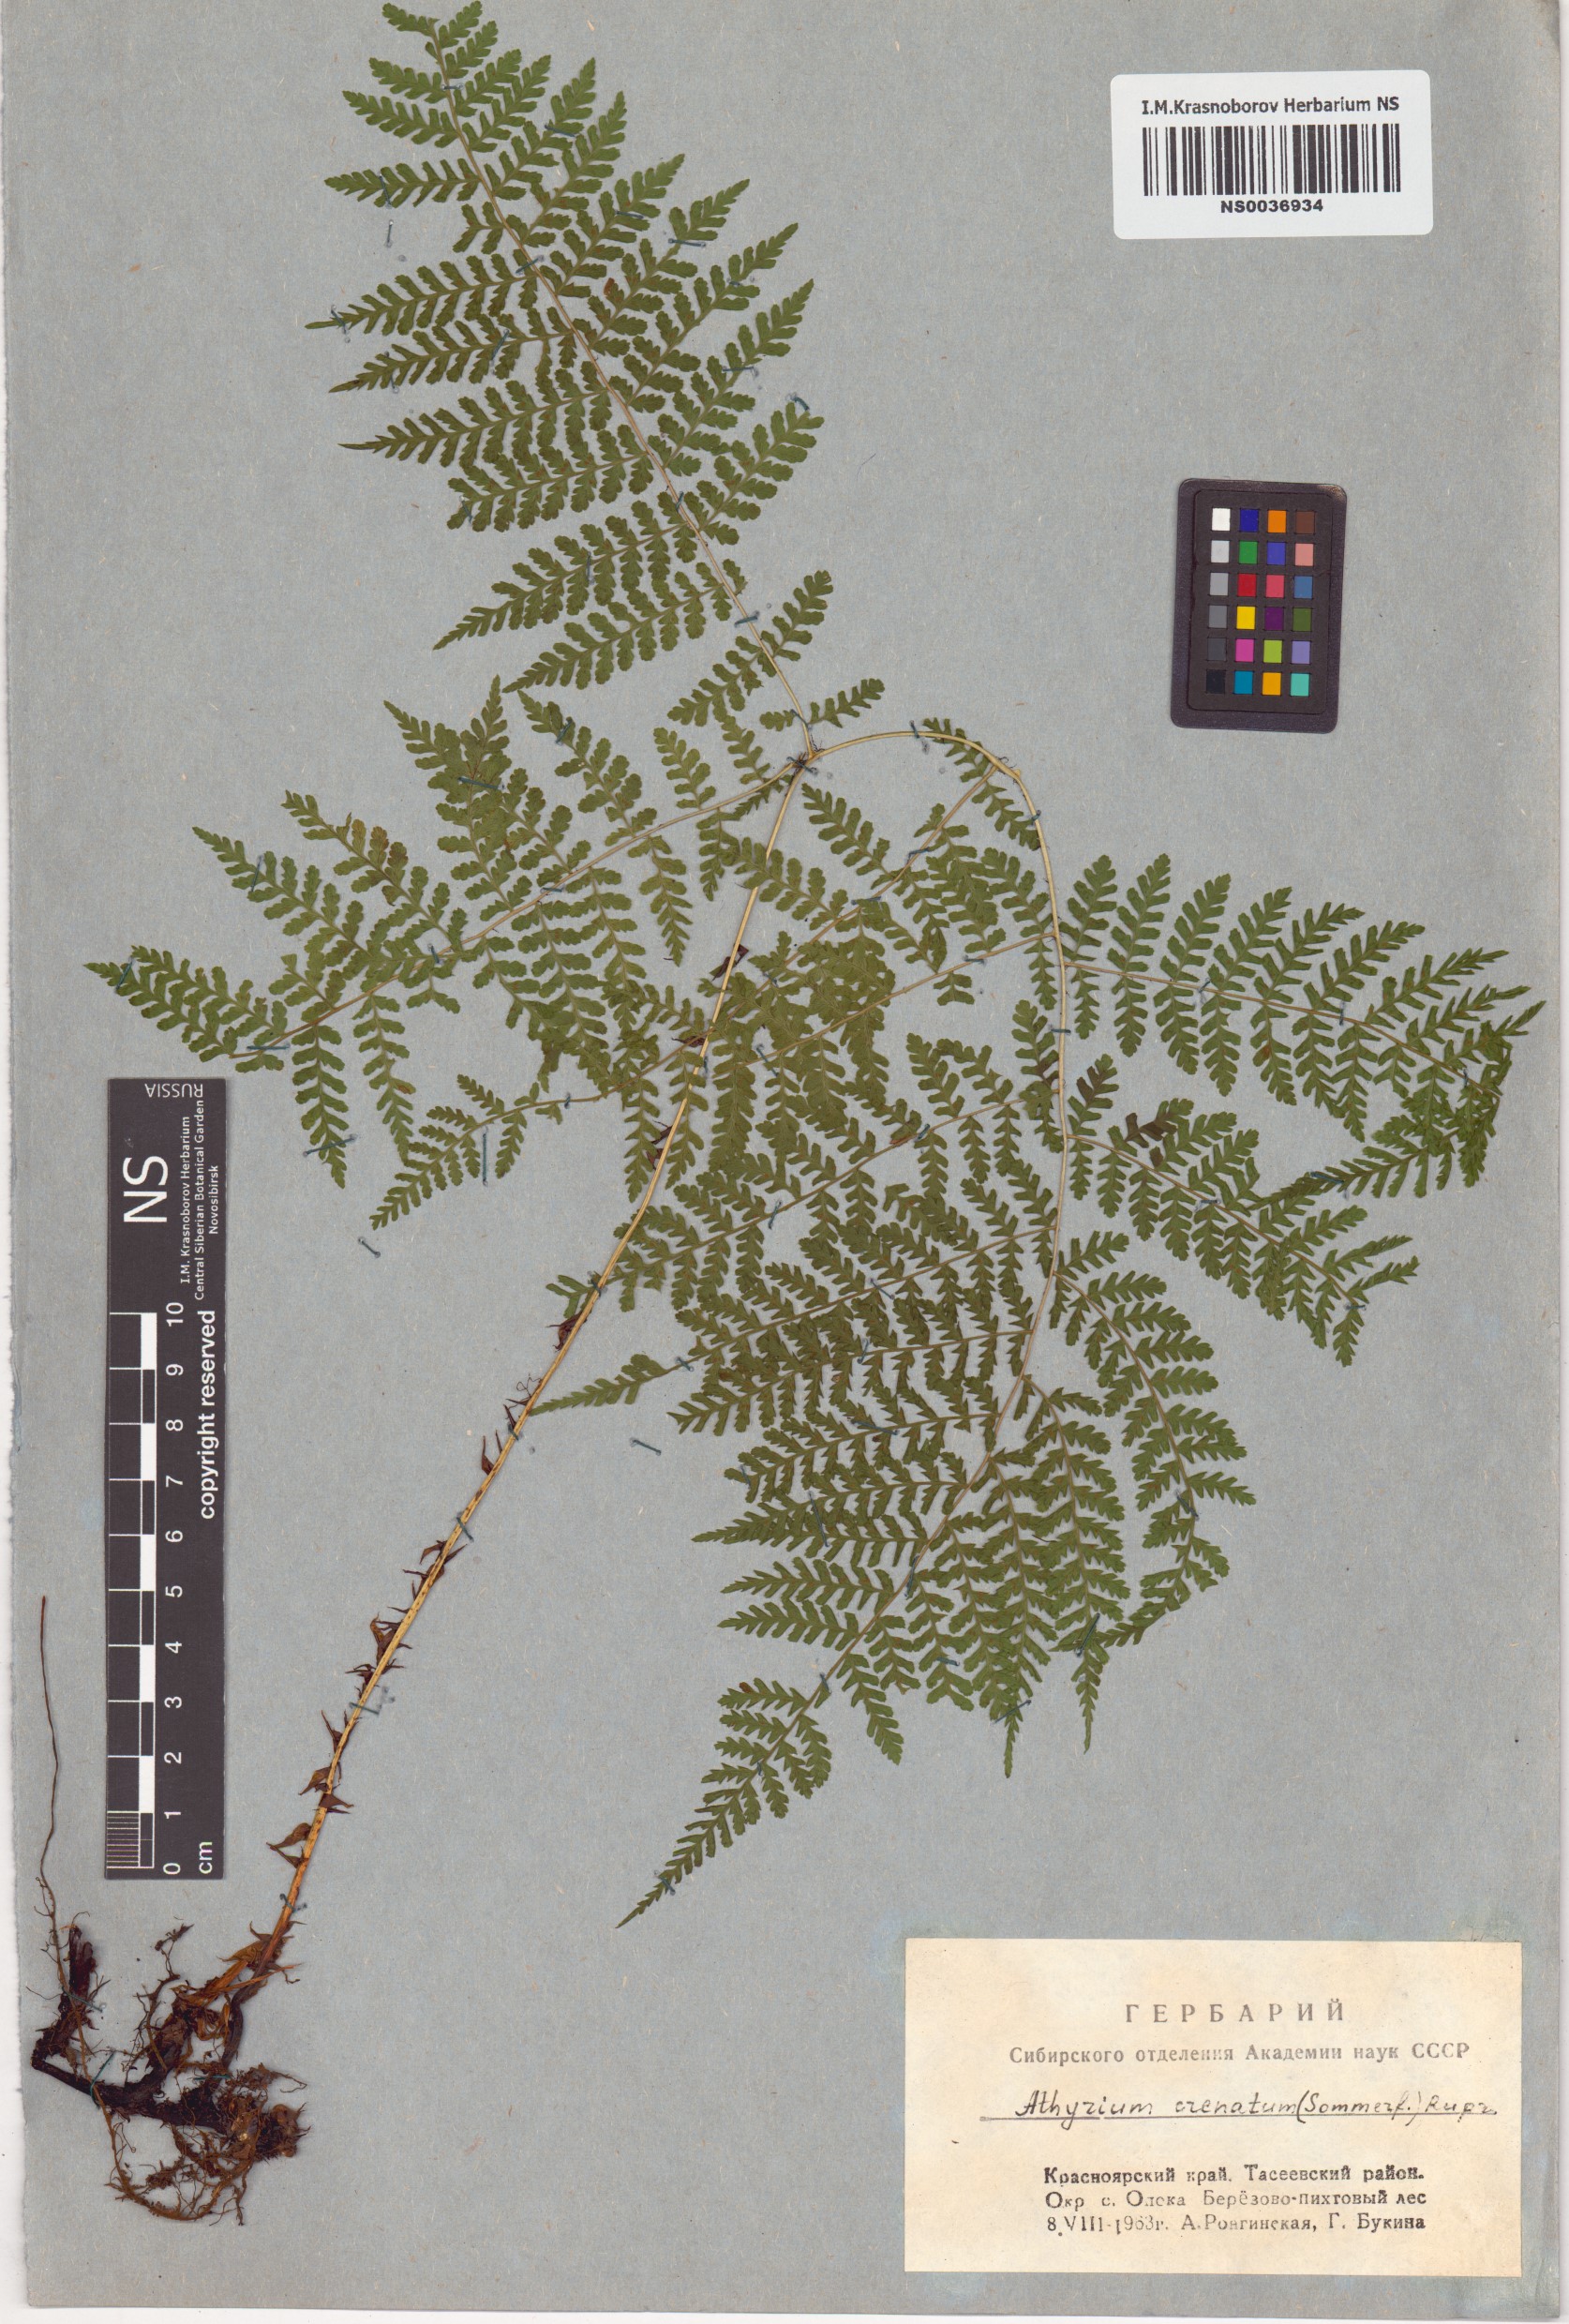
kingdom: Plantae
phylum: Tracheophyta
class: Polypodiopsida
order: Polypodiales
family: Athyriaceae
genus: Diplazium
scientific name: Diplazium sibiricum
